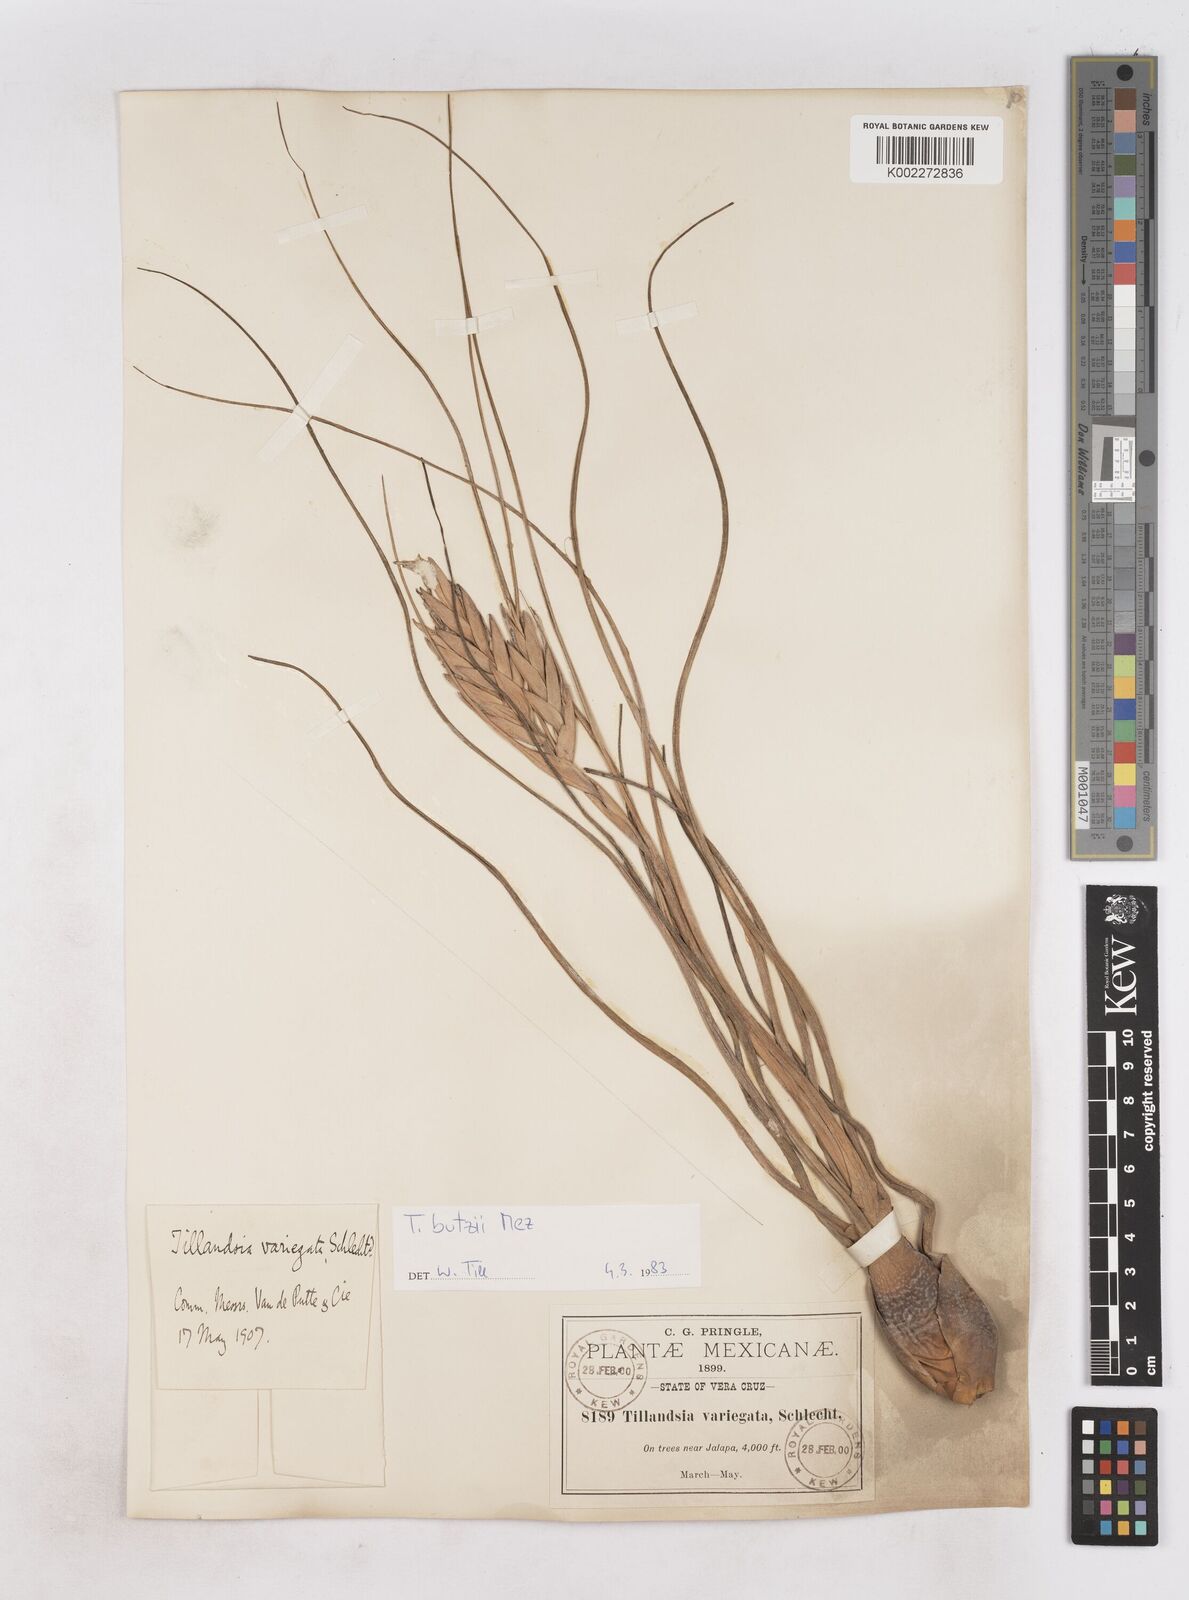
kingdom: Plantae
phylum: Tracheophyta
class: Liliopsida
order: Poales
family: Bromeliaceae
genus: Tillandsia
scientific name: Tillandsia butzii
